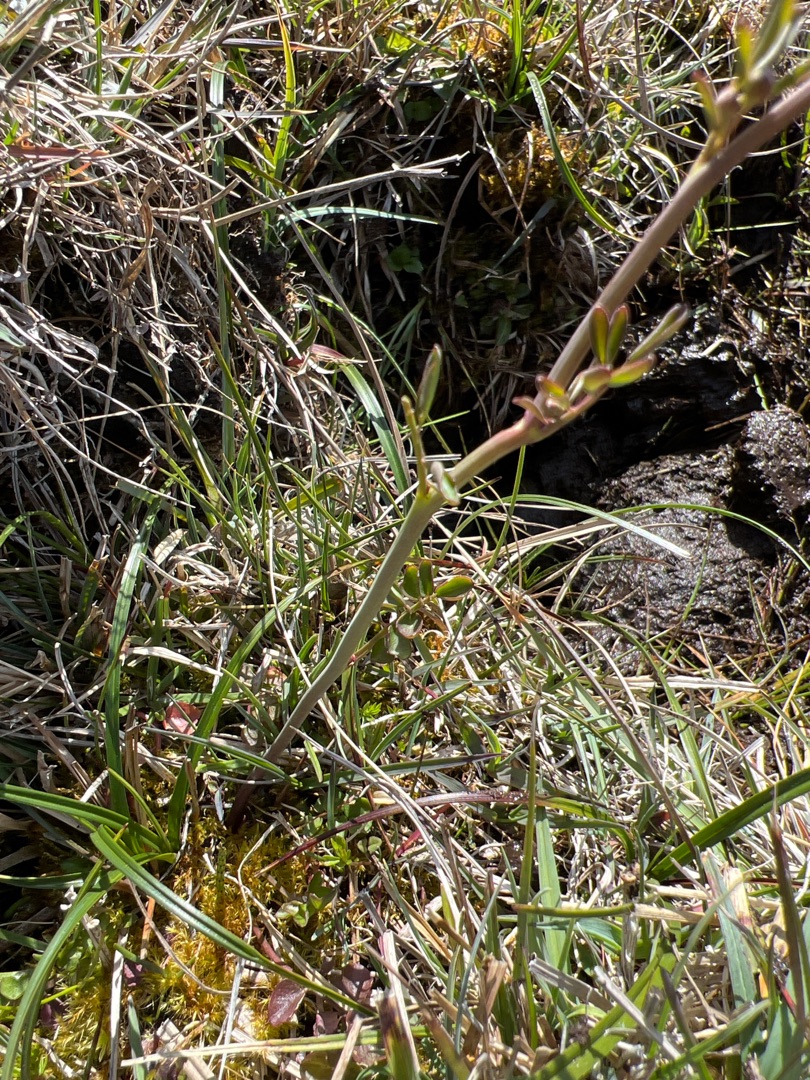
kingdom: Plantae
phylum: Tracheophyta
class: Magnoliopsida
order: Brassicales
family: Brassicaceae
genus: Cardamine
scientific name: Cardamine pratensis
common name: Engkarse
